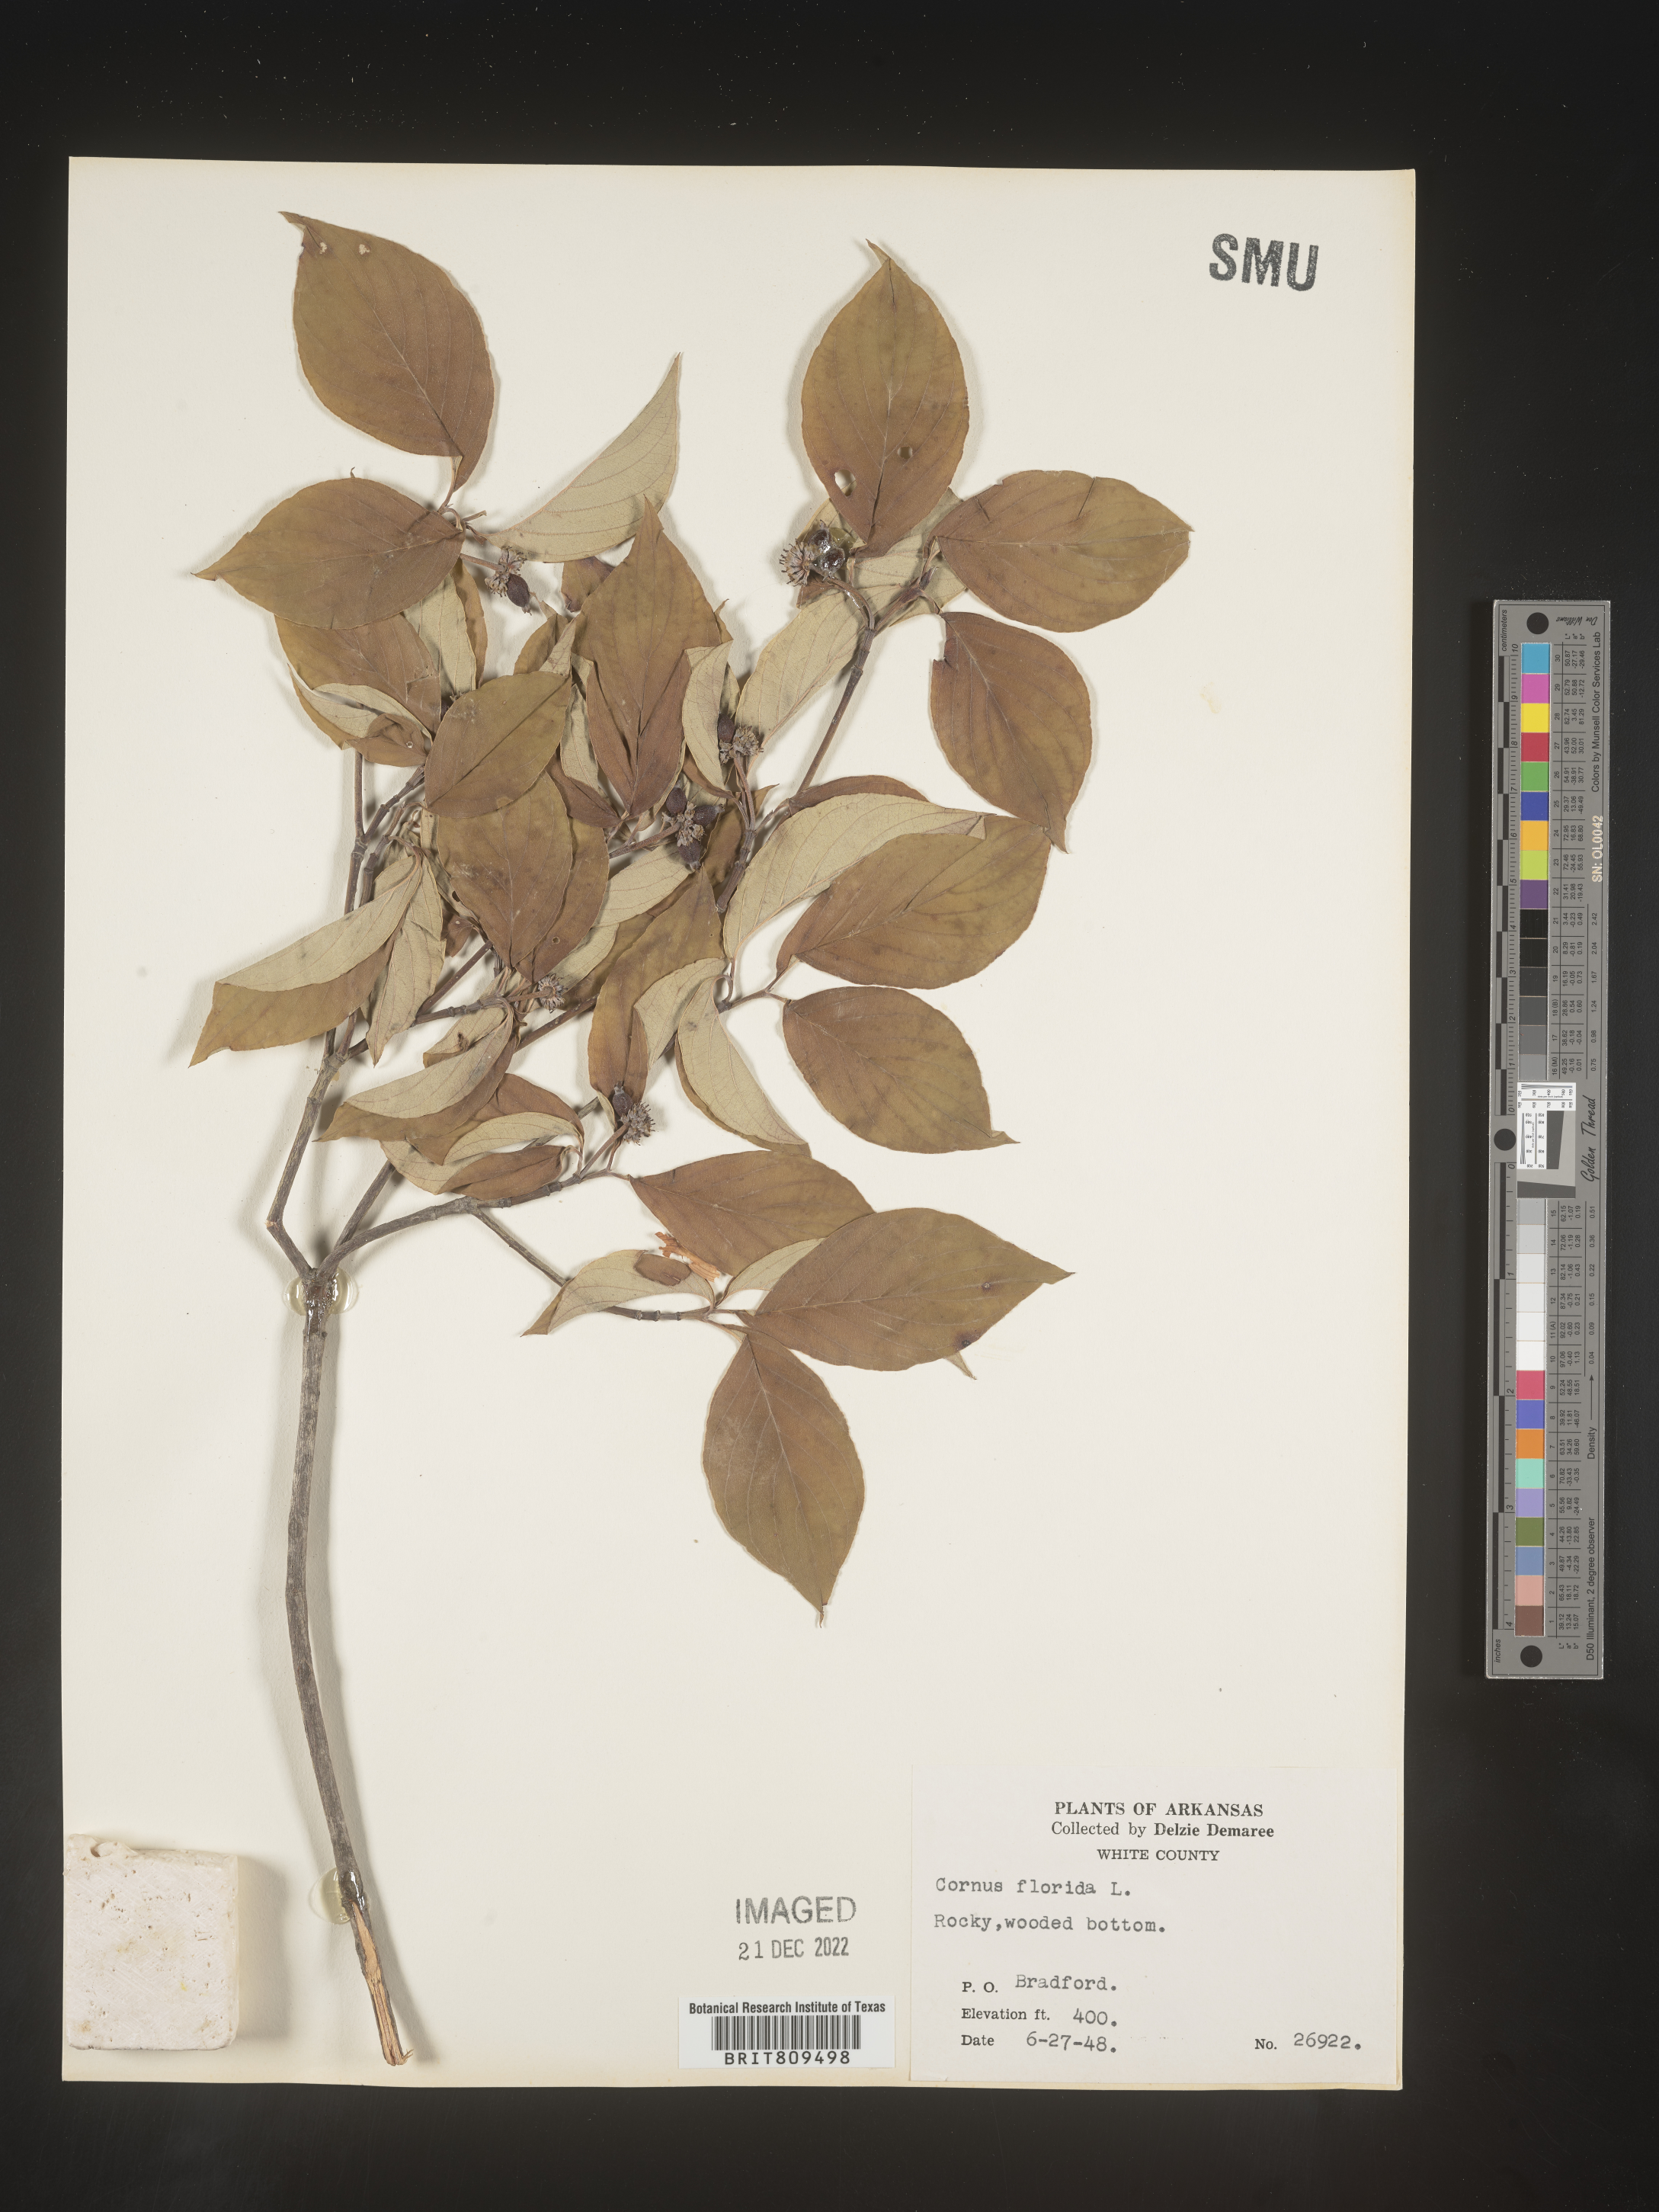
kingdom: Plantae
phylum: Tracheophyta
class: Magnoliopsida
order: Cornales
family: Cornaceae
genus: Cornus
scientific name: Cornus florida
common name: Flowering dogwood
